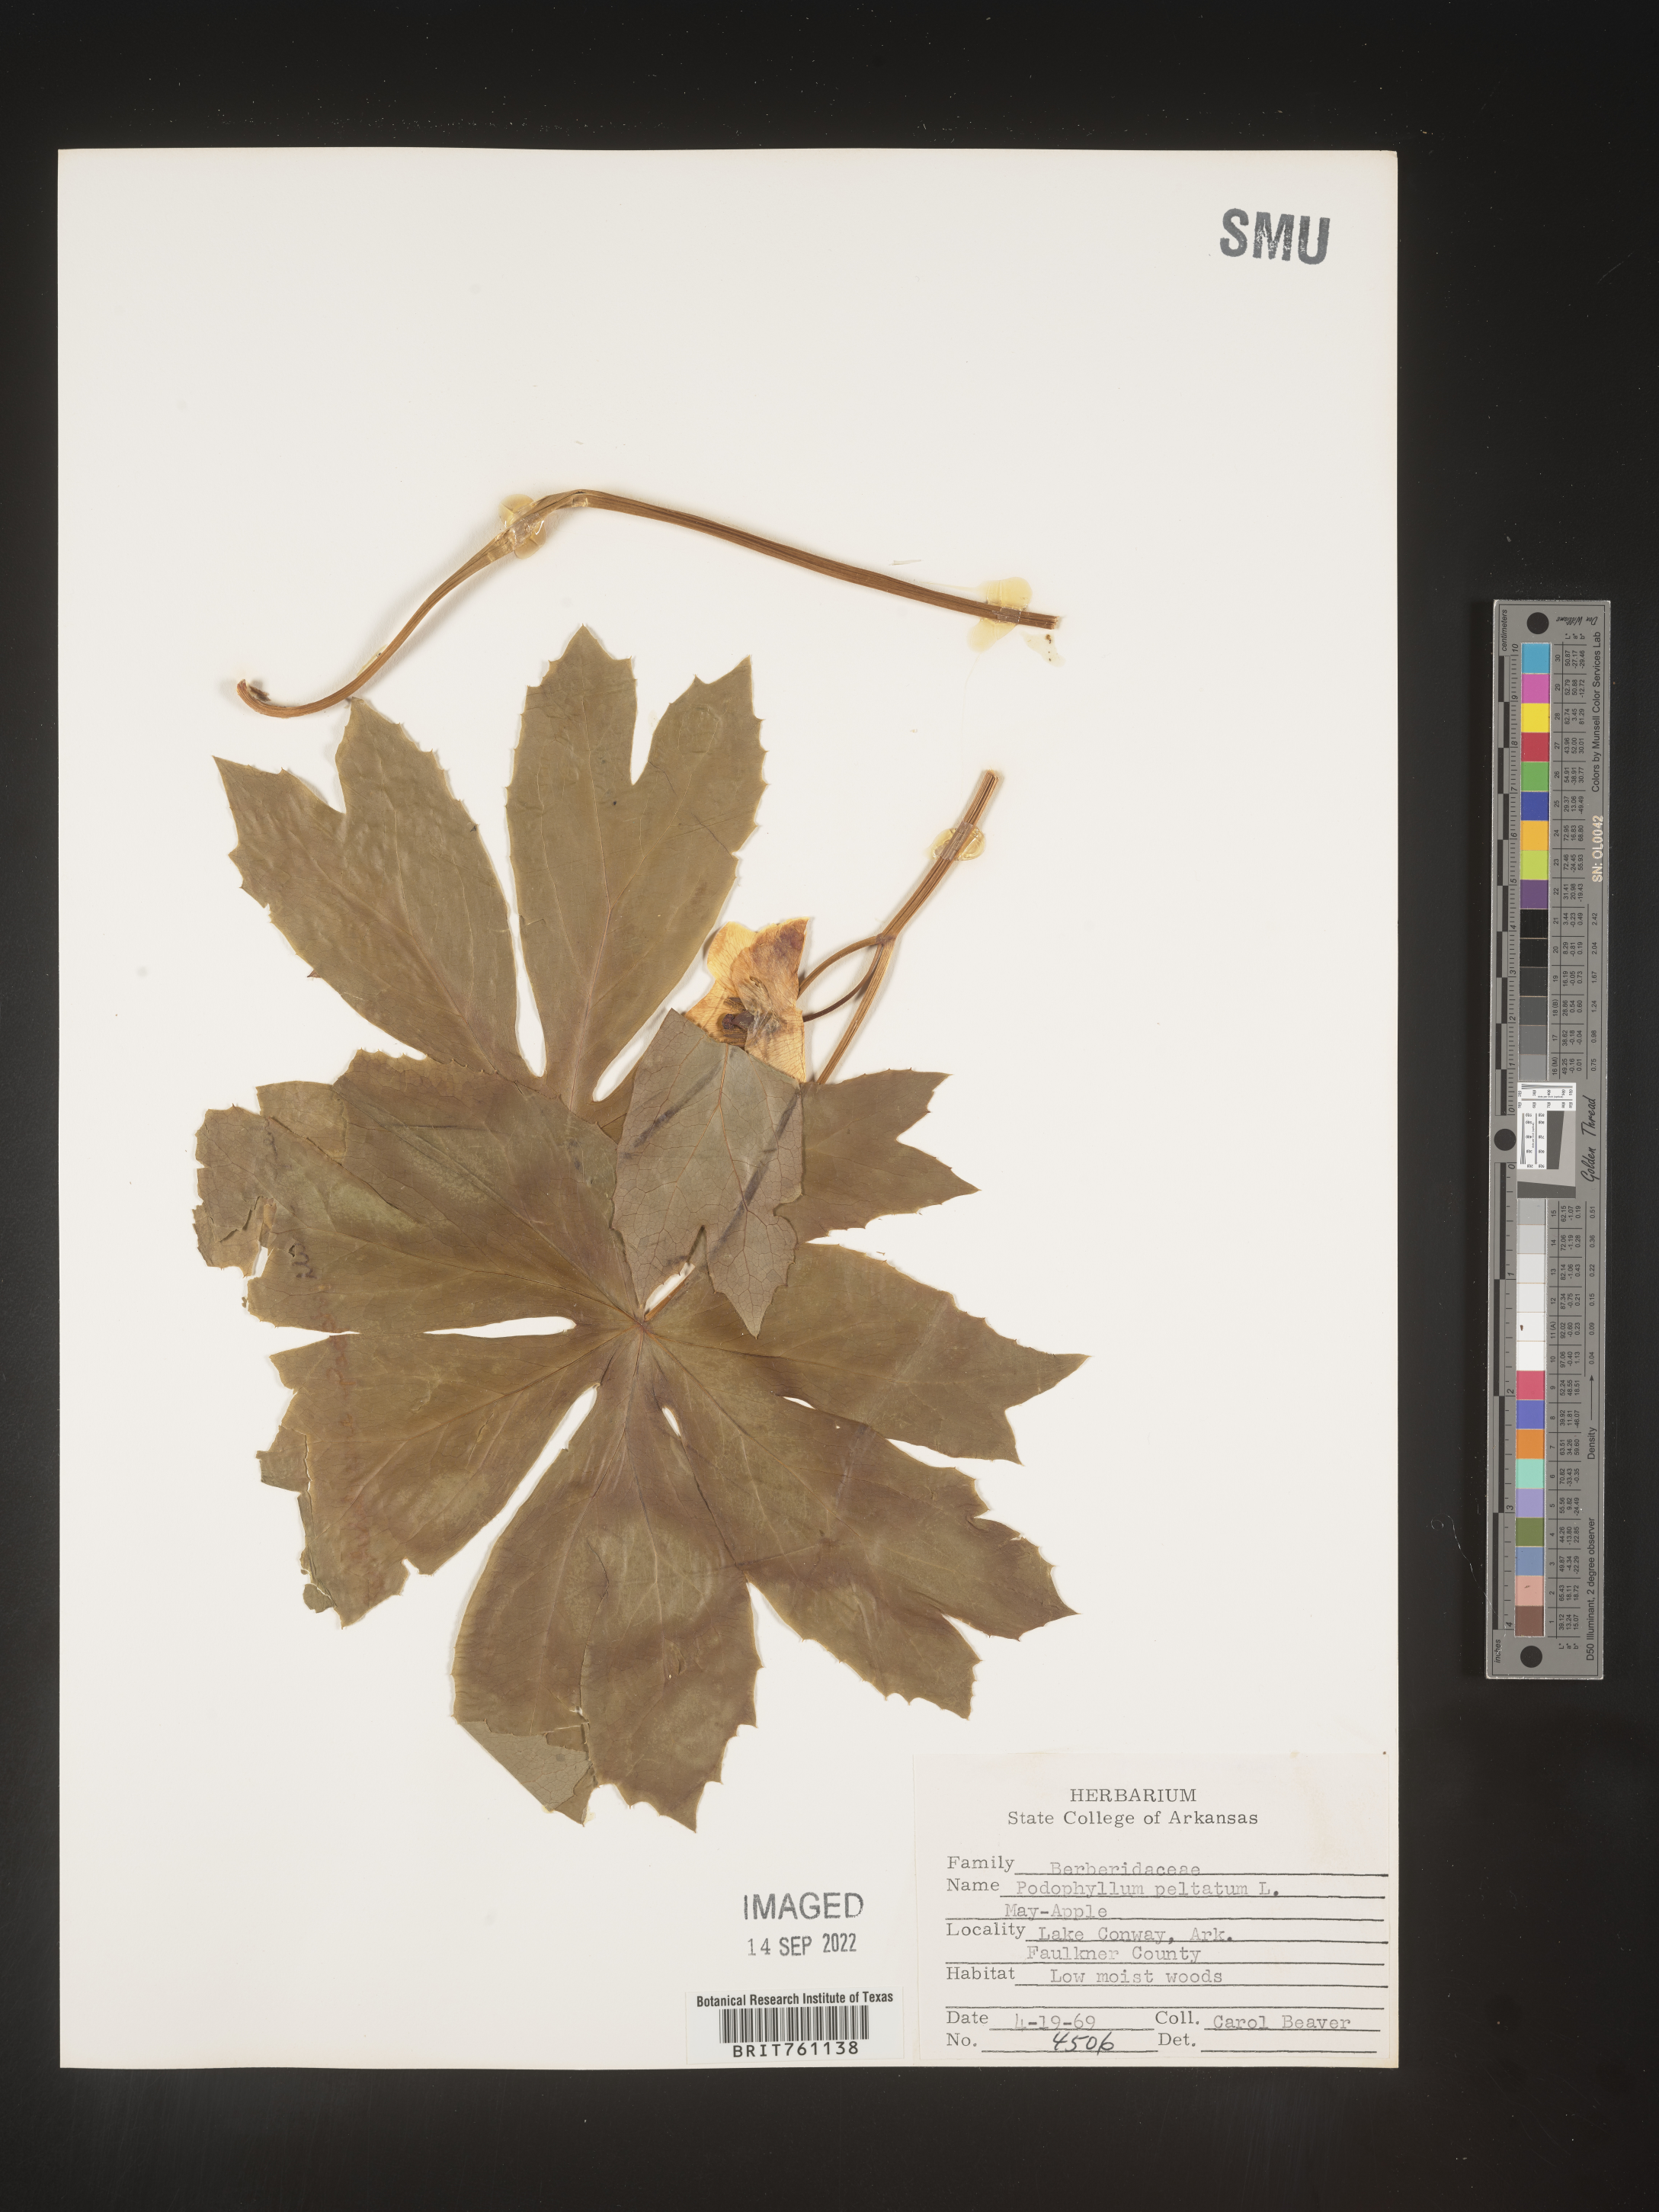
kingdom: Plantae
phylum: Tracheophyta
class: Magnoliopsida
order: Ranunculales
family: Berberidaceae
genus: Podophyllum
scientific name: Podophyllum peltatum
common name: Wild mandrake
